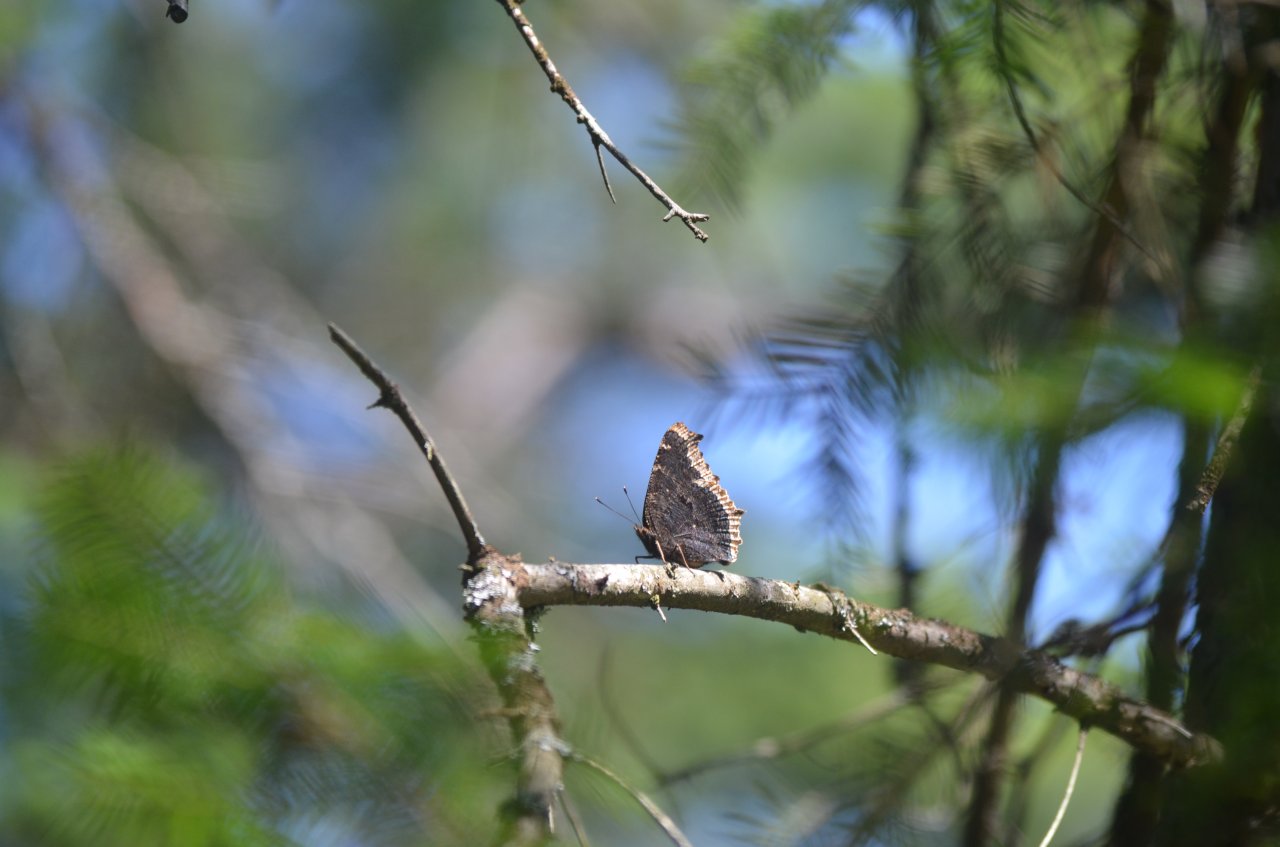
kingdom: Animalia
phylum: Arthropoda
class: Insecta
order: Lepidoptera
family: Nymphalidae
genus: Nymphalis
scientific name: Nymphalis antiopa
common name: Mourning Cloak
